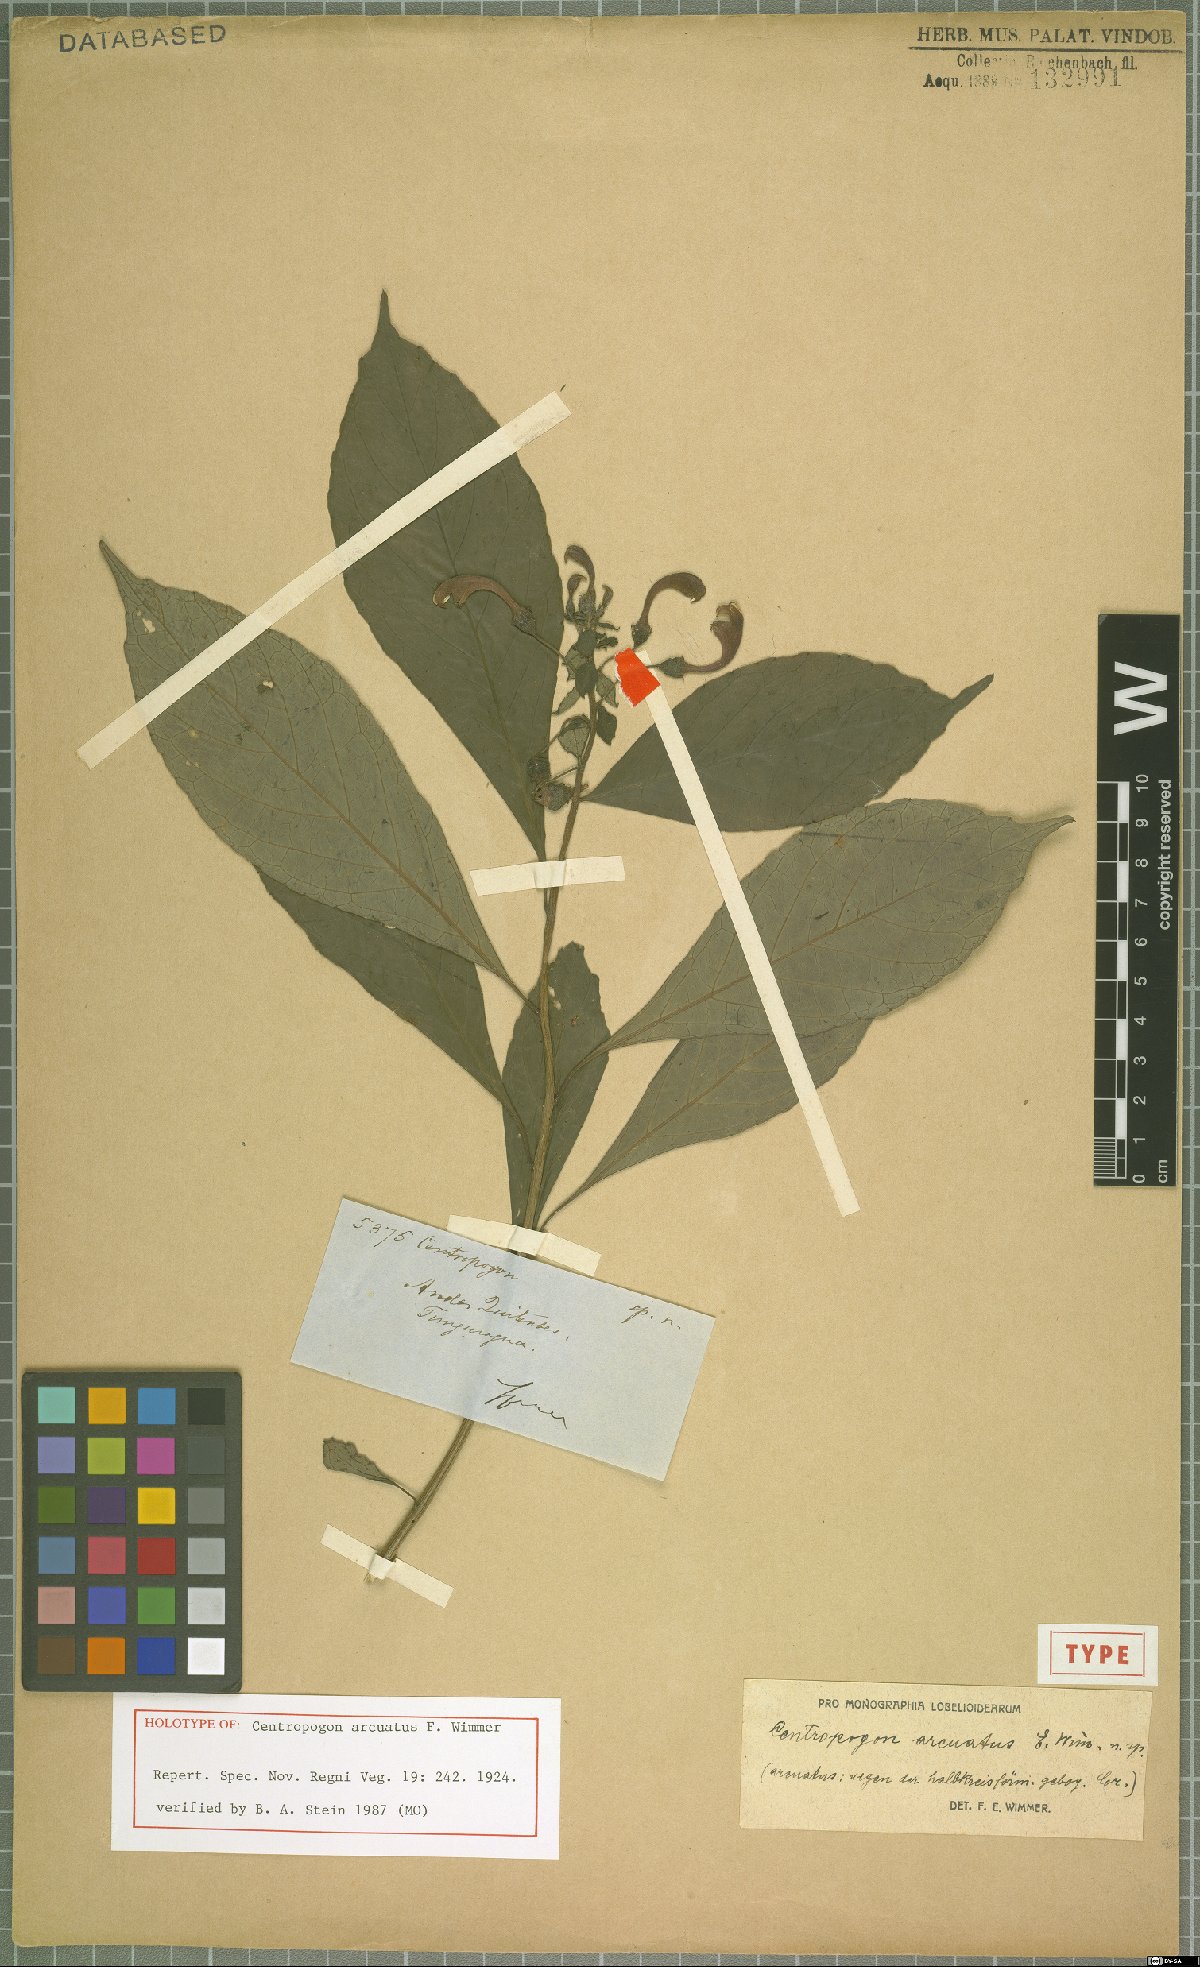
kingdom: Plantae
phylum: Tracheophyta
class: Magnoliopsida
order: Asterales
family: Campanulaceae
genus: Centropogon
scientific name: Centropogon arcuatus
